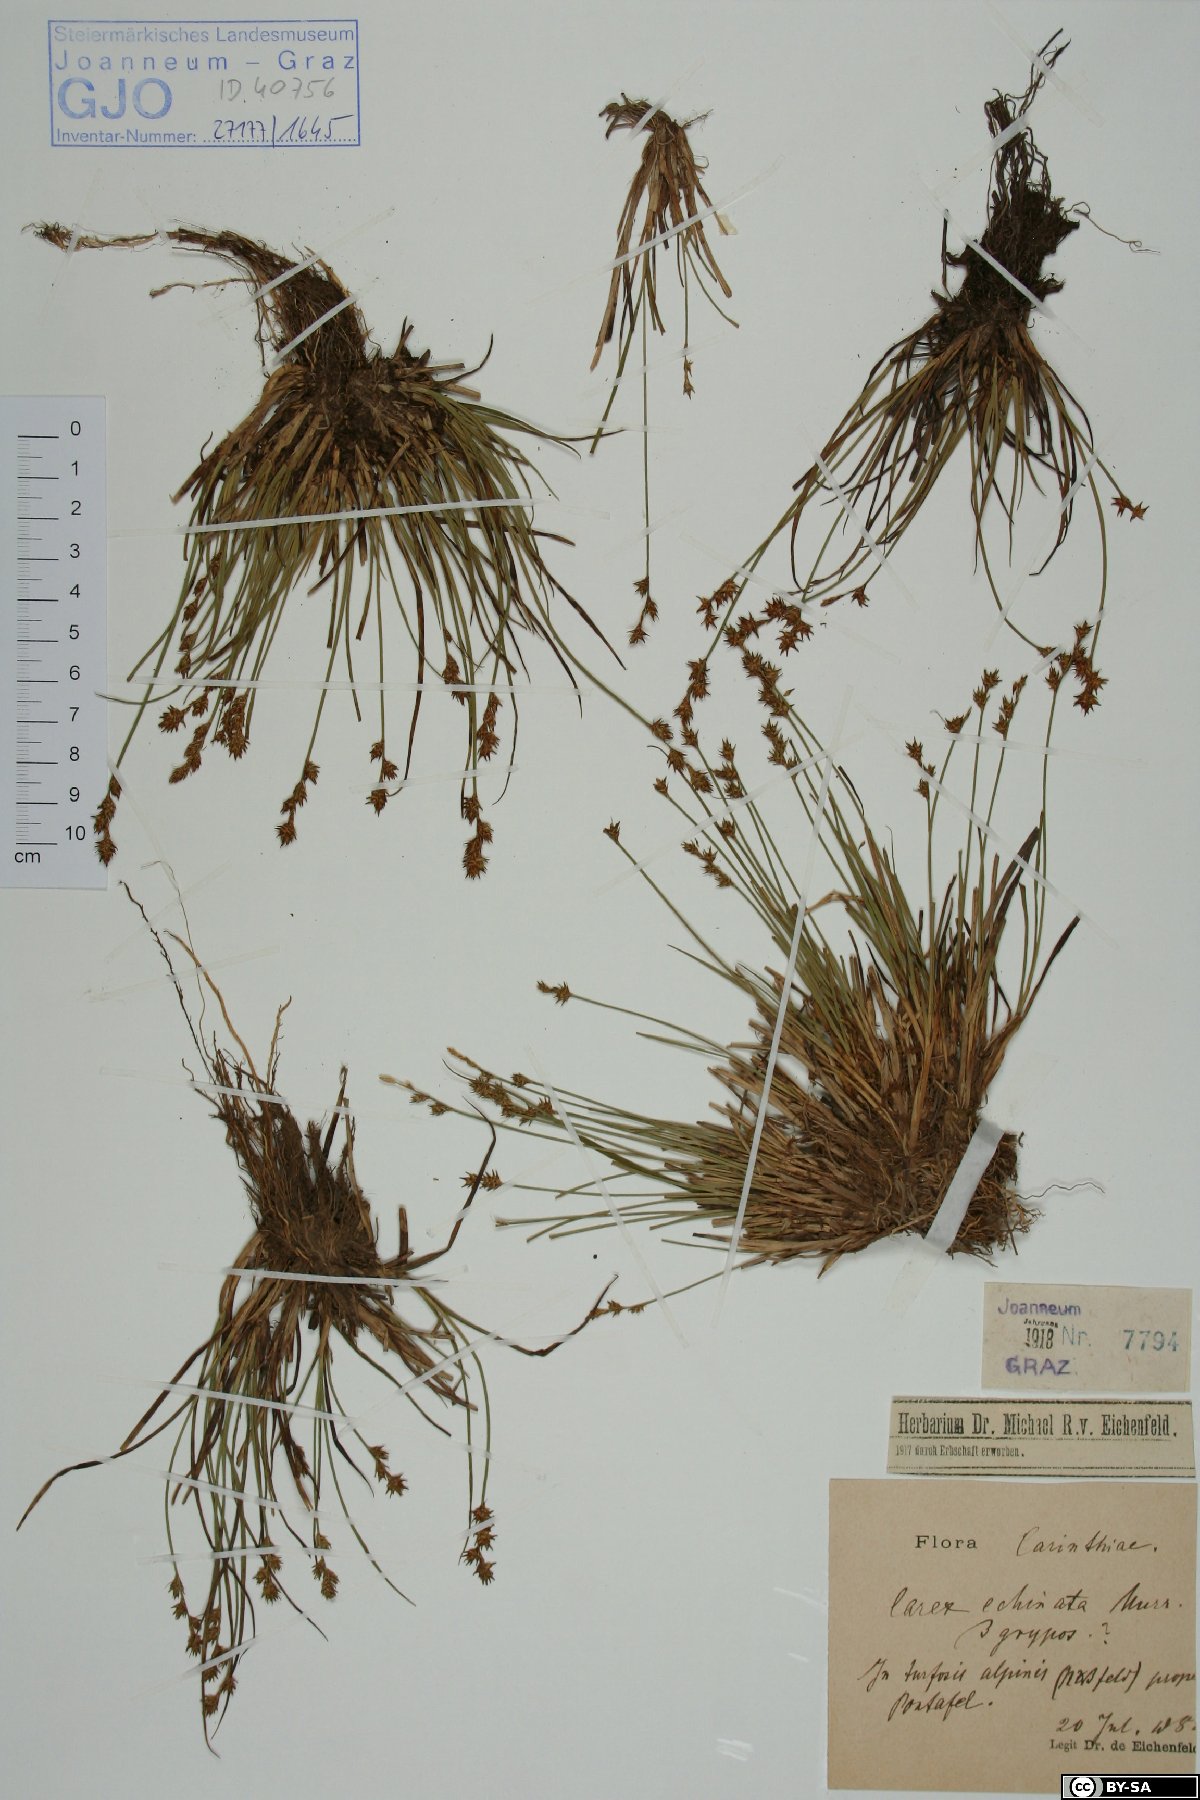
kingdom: Plantae
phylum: Tracheophyta
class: Liliopsida
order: Poales
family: Cyperaceae
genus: Carex
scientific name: Carex echinata
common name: Star sedge
